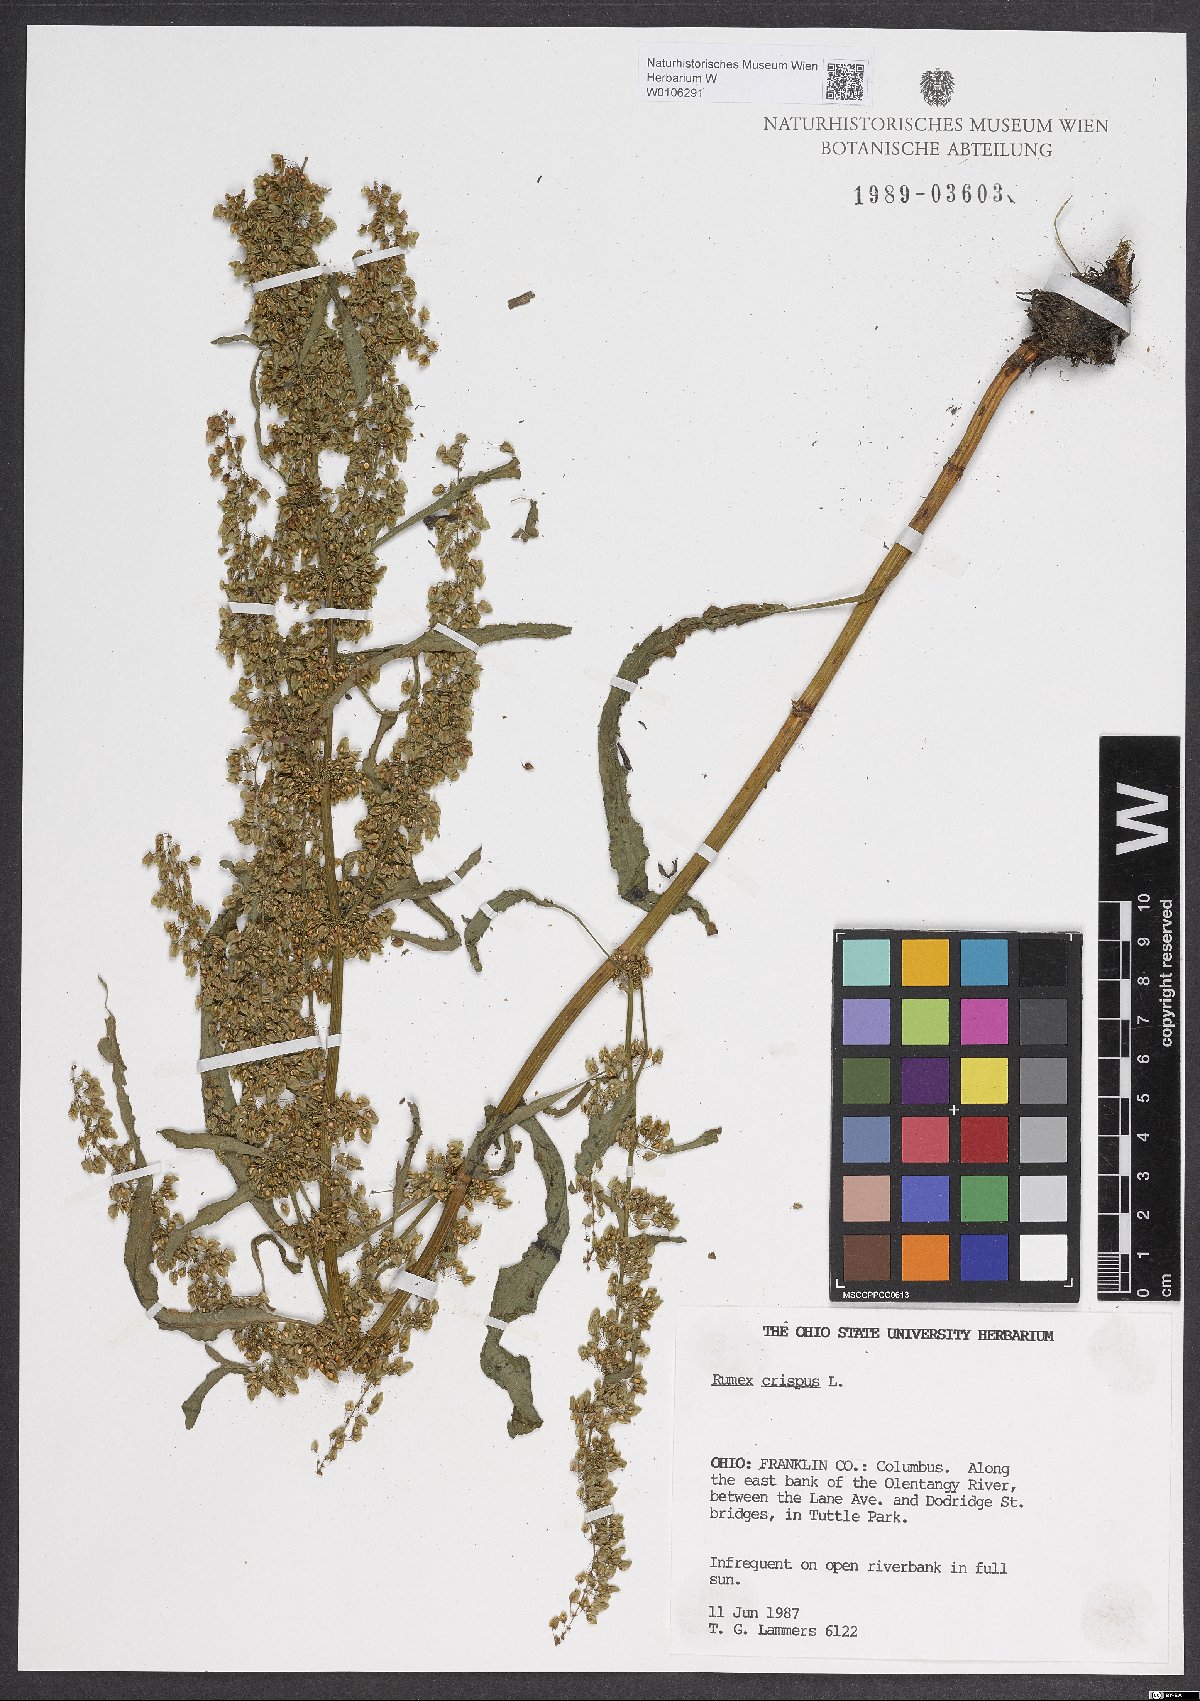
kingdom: Plantae
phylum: Tracheophyta
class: Magnoliopsida
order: Caryophyllales
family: Polygonaceae
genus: Rumex
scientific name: Rumex crispus
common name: Curled dock
